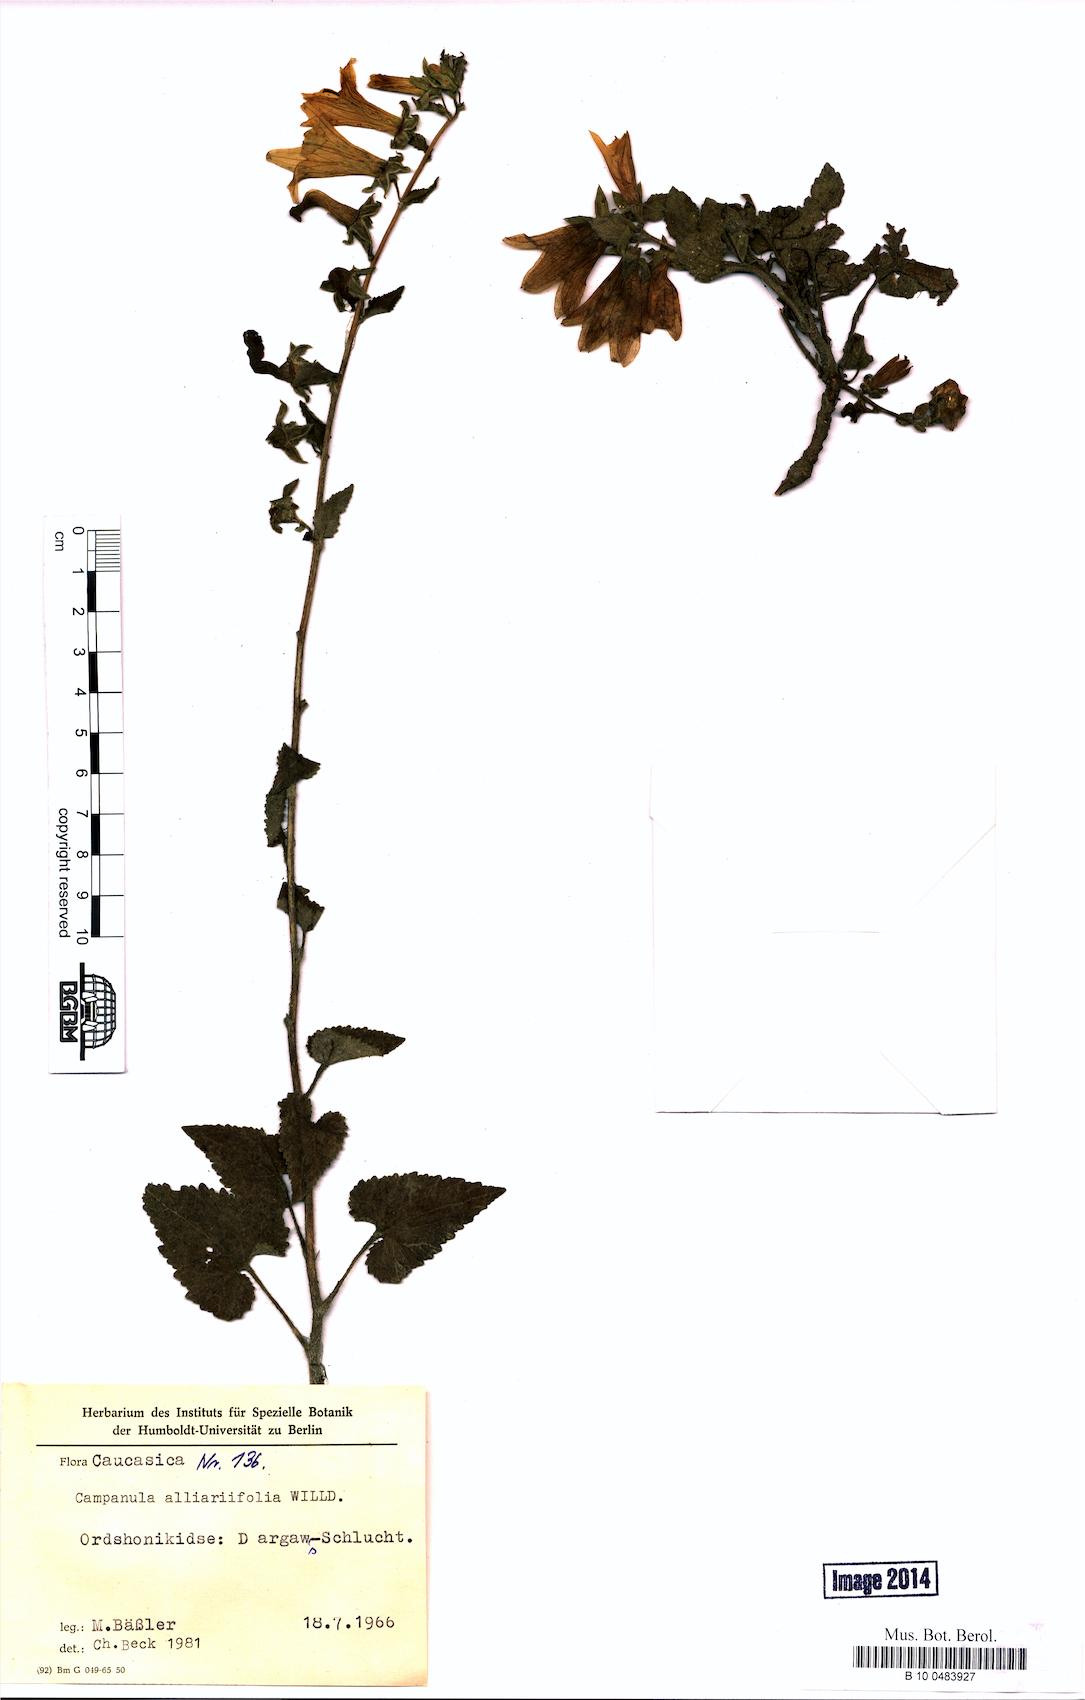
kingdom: Plantae
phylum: Tracheophyta
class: Magnoliopsida
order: Asterales
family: Campanulaceae
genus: Campanula
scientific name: Campanula alliariifolia
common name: Cornish bellflower
